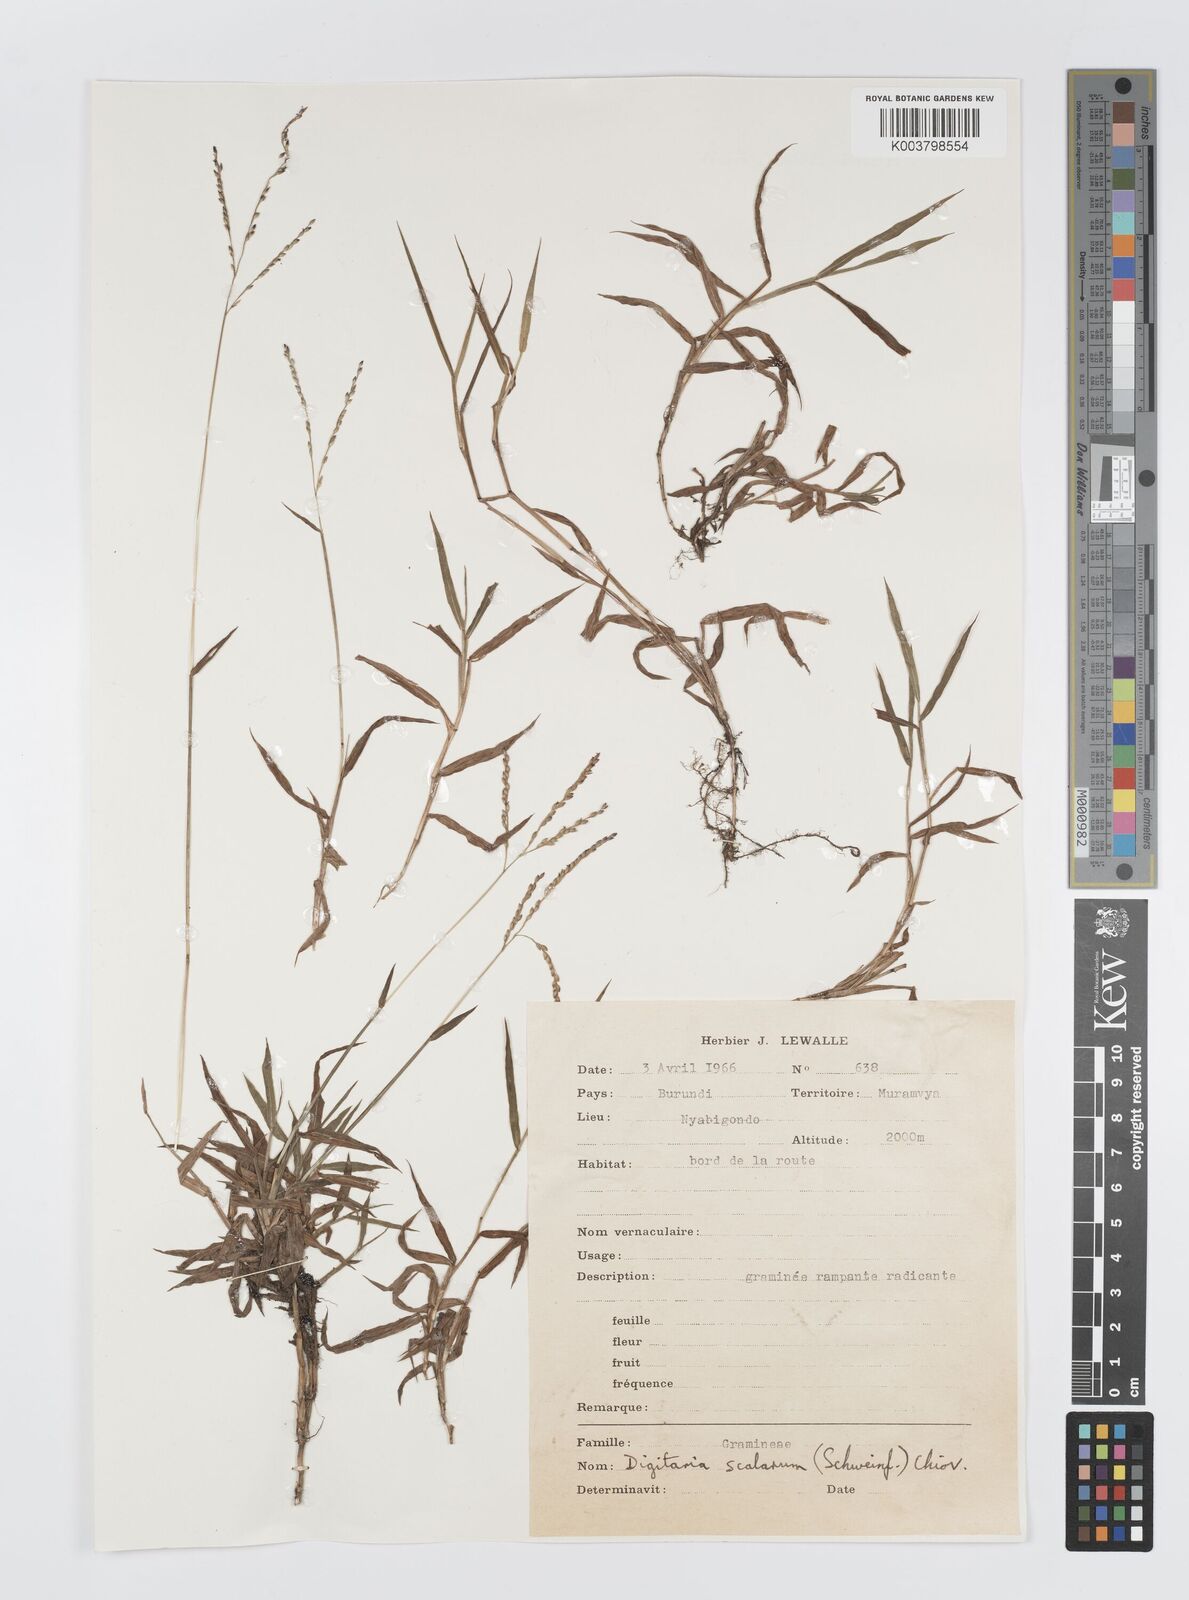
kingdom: Plantae
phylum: Tracheophyta
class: Liliopsida
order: Poales
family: Poaceae
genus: Digitaria
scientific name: Digitaria abyssinica
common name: African couchgrass
